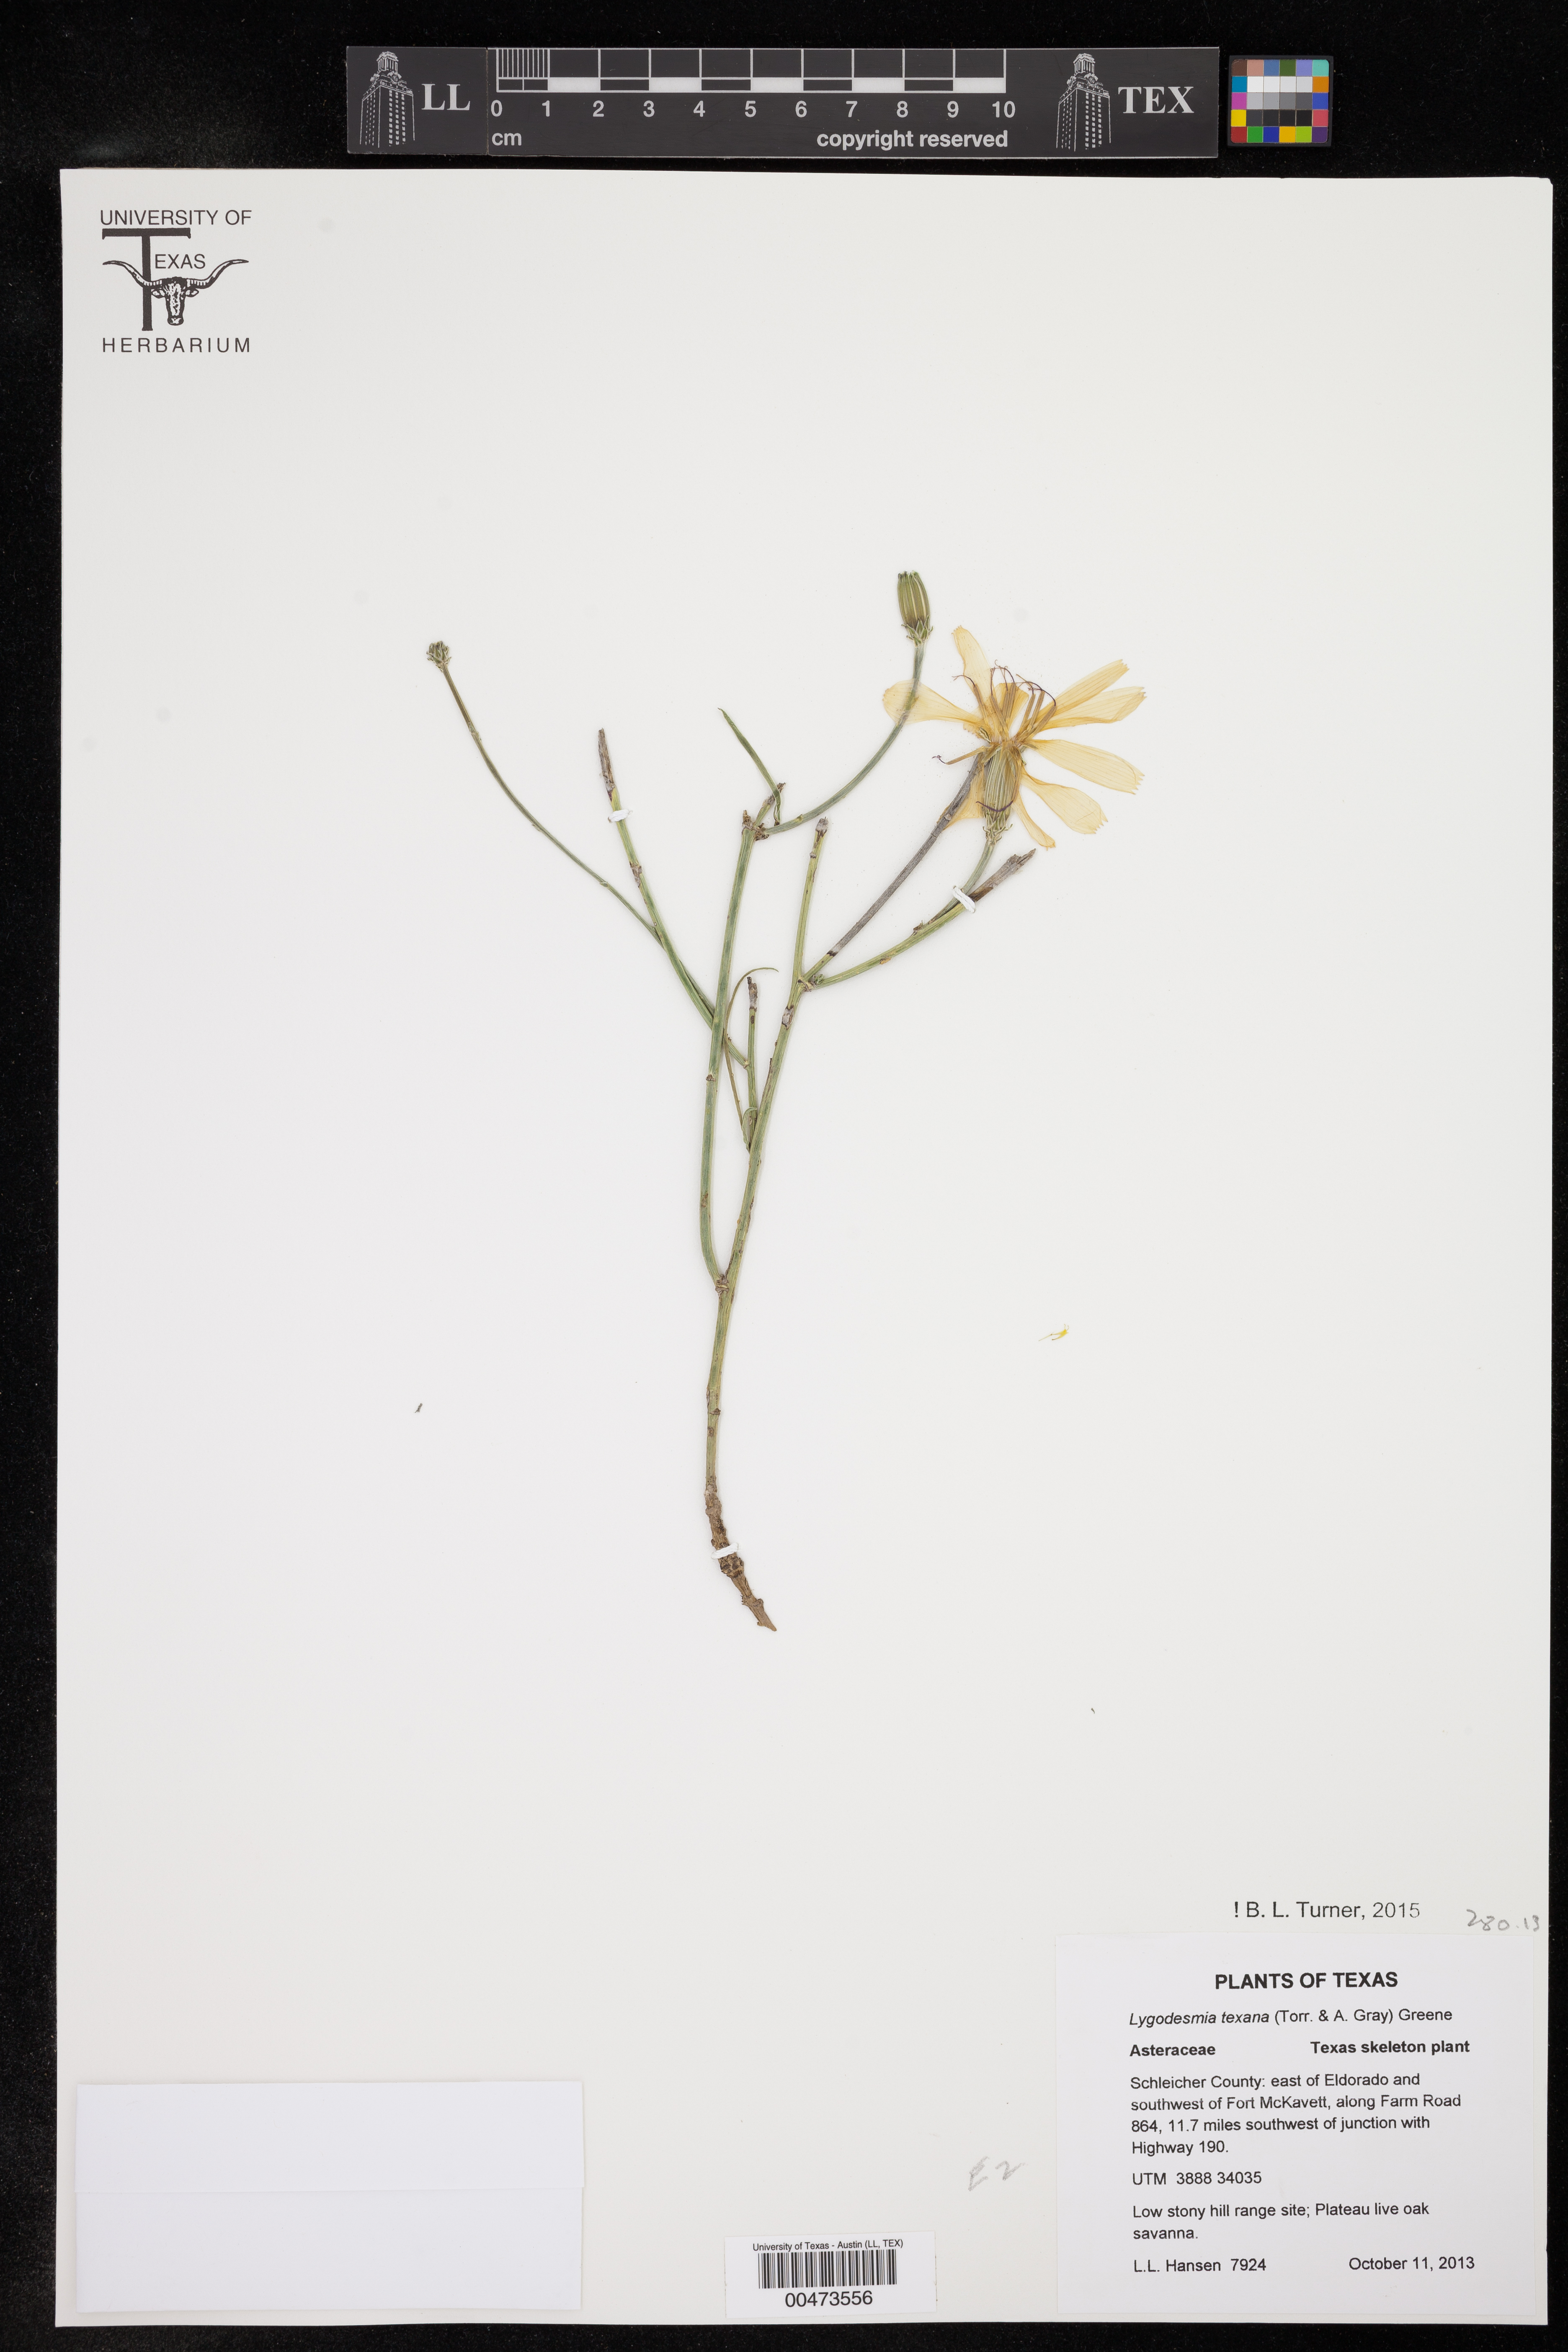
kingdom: Plantae
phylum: Tracheophyta
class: Magnoliopsida
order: Asterales
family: Asteraceae
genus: Lygodesmia
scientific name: Lygodesmia texana
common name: Texas skeleton-plant
